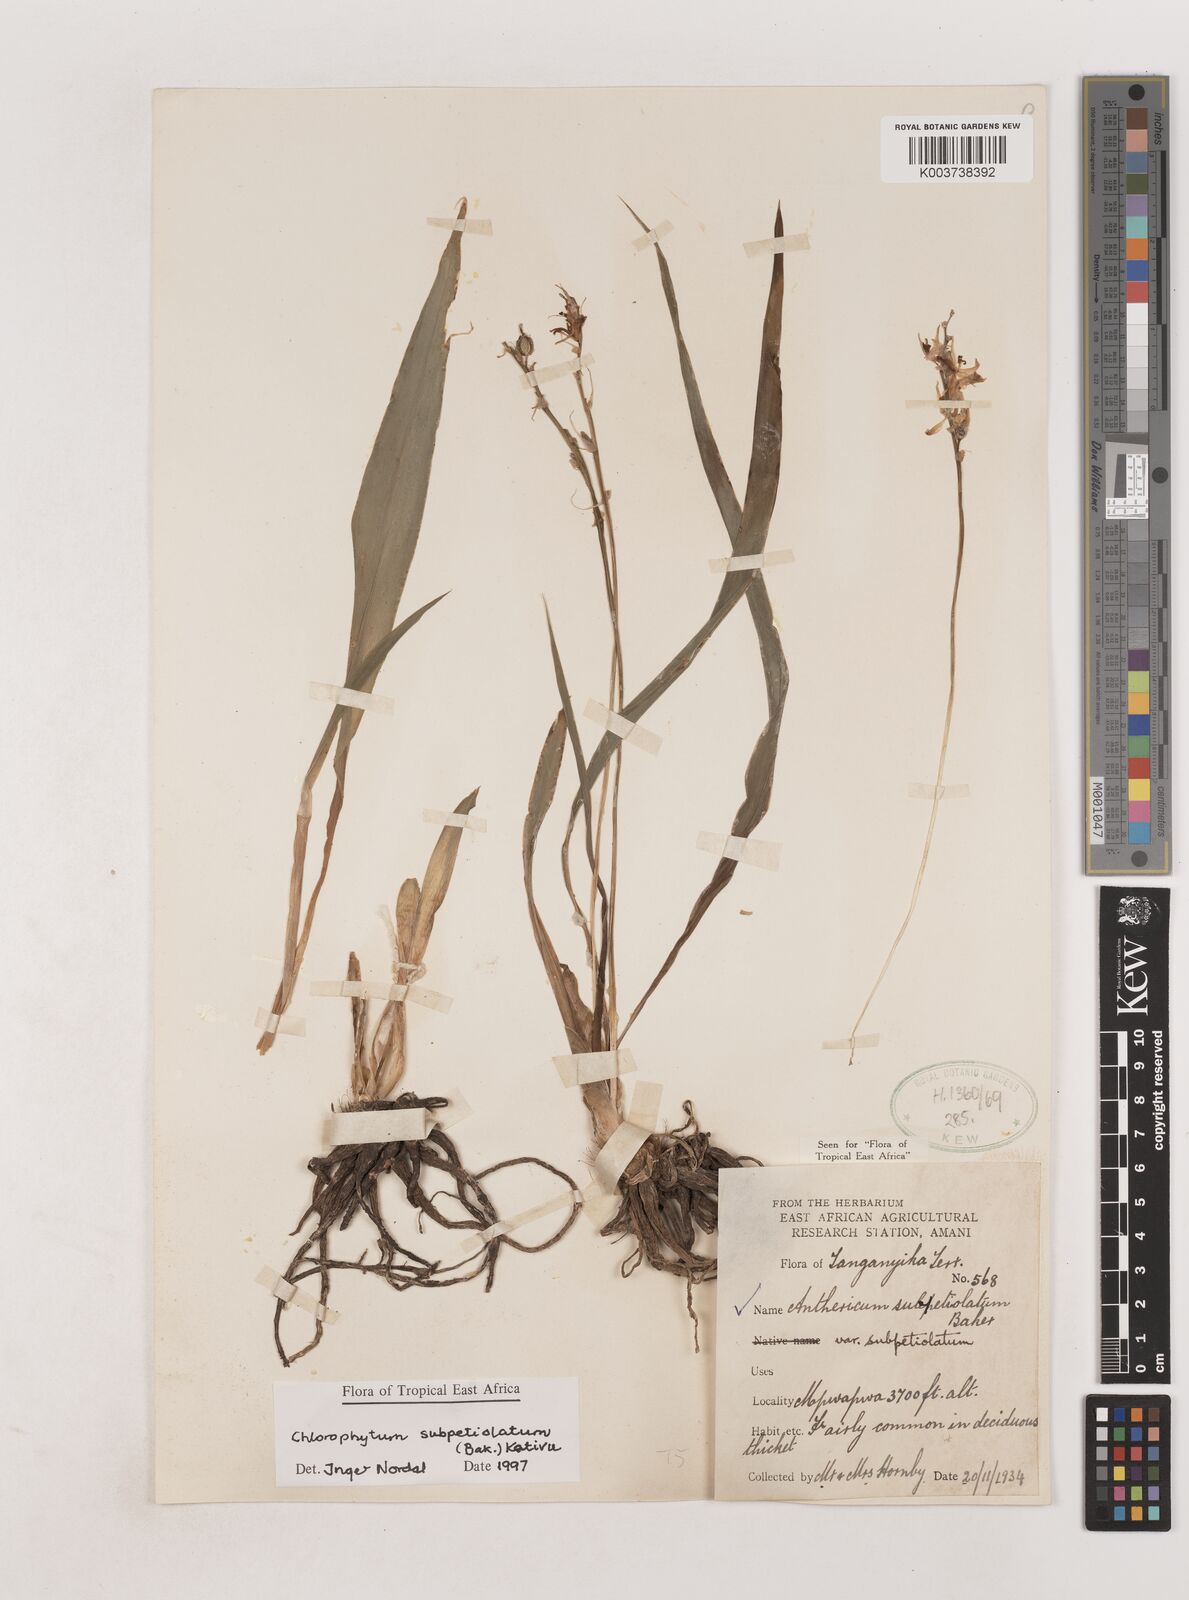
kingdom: Plantae
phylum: Tracheophyta
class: Liliopsida
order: Asparagales
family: Asparagaceae
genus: Chlorophytum
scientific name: Chlorophytum subpetiolatum
